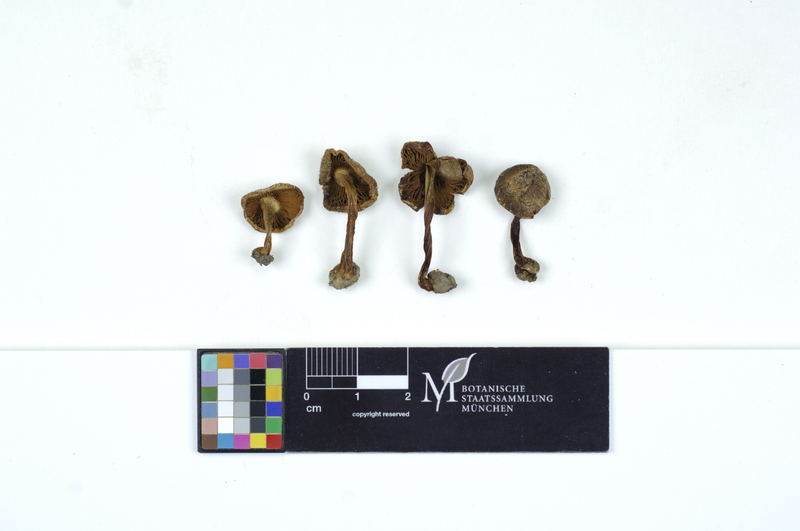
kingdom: Fungi
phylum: Basidiomycota
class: Agaricomycetes
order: Agaricales
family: Inocybaceae
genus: Inocybe
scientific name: Inocybe godeyi
